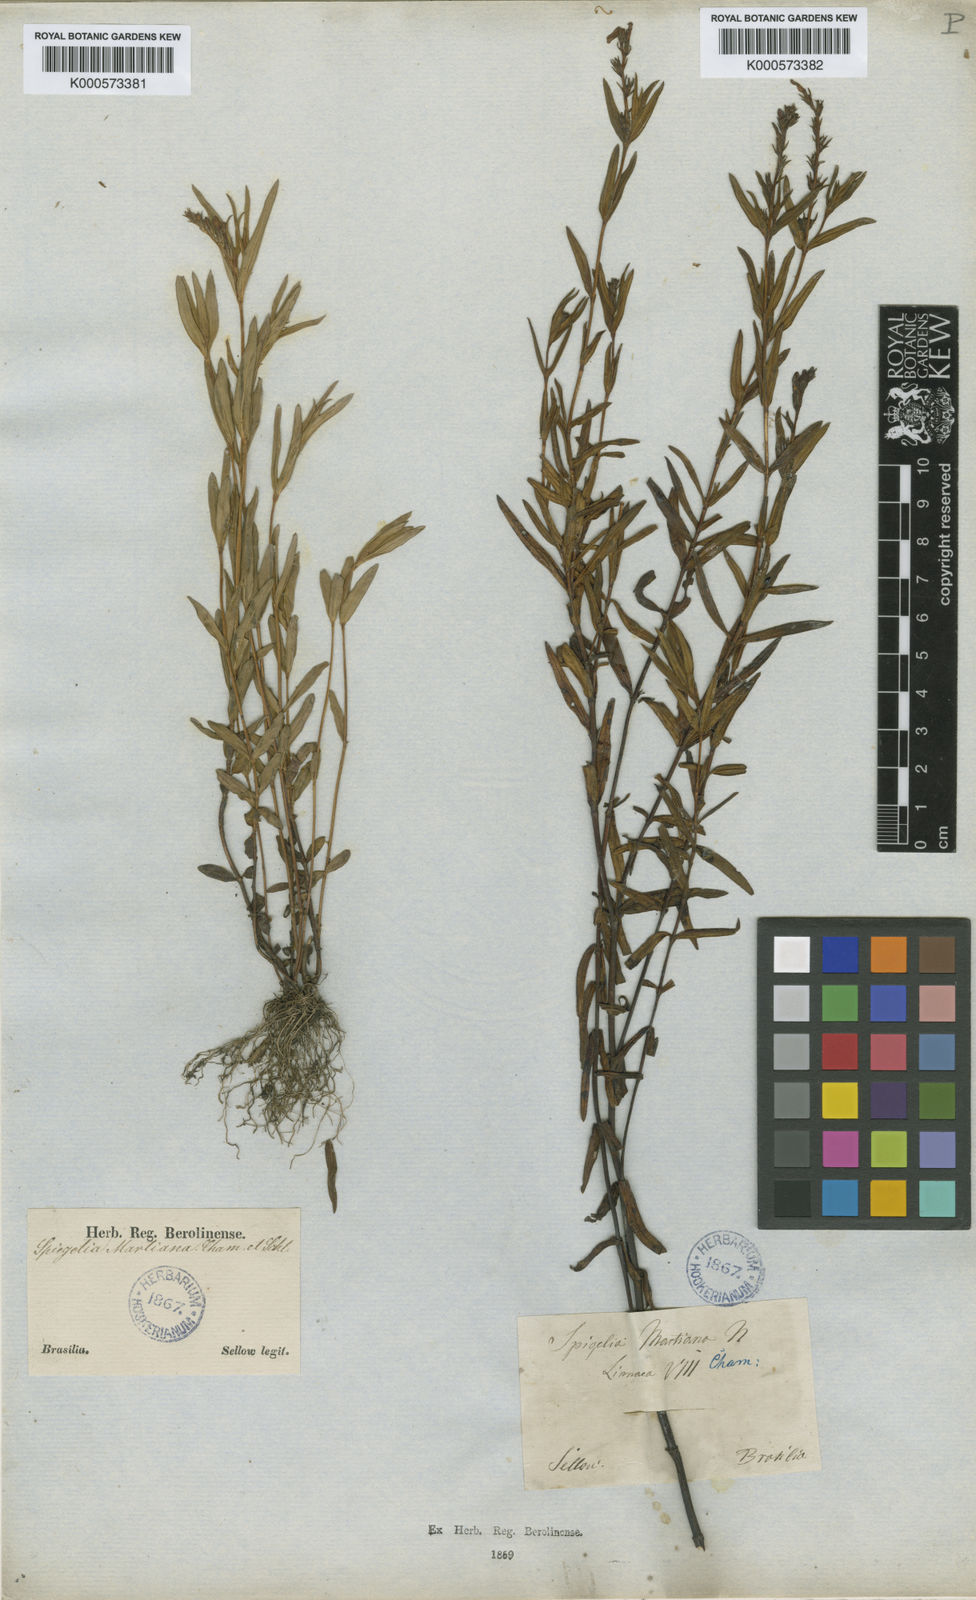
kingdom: Plantae
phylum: Tracheophyta
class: Magnoliopsida
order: Gentianales
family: Loganiaceae
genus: Spigelia
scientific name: Spigelia martiana
